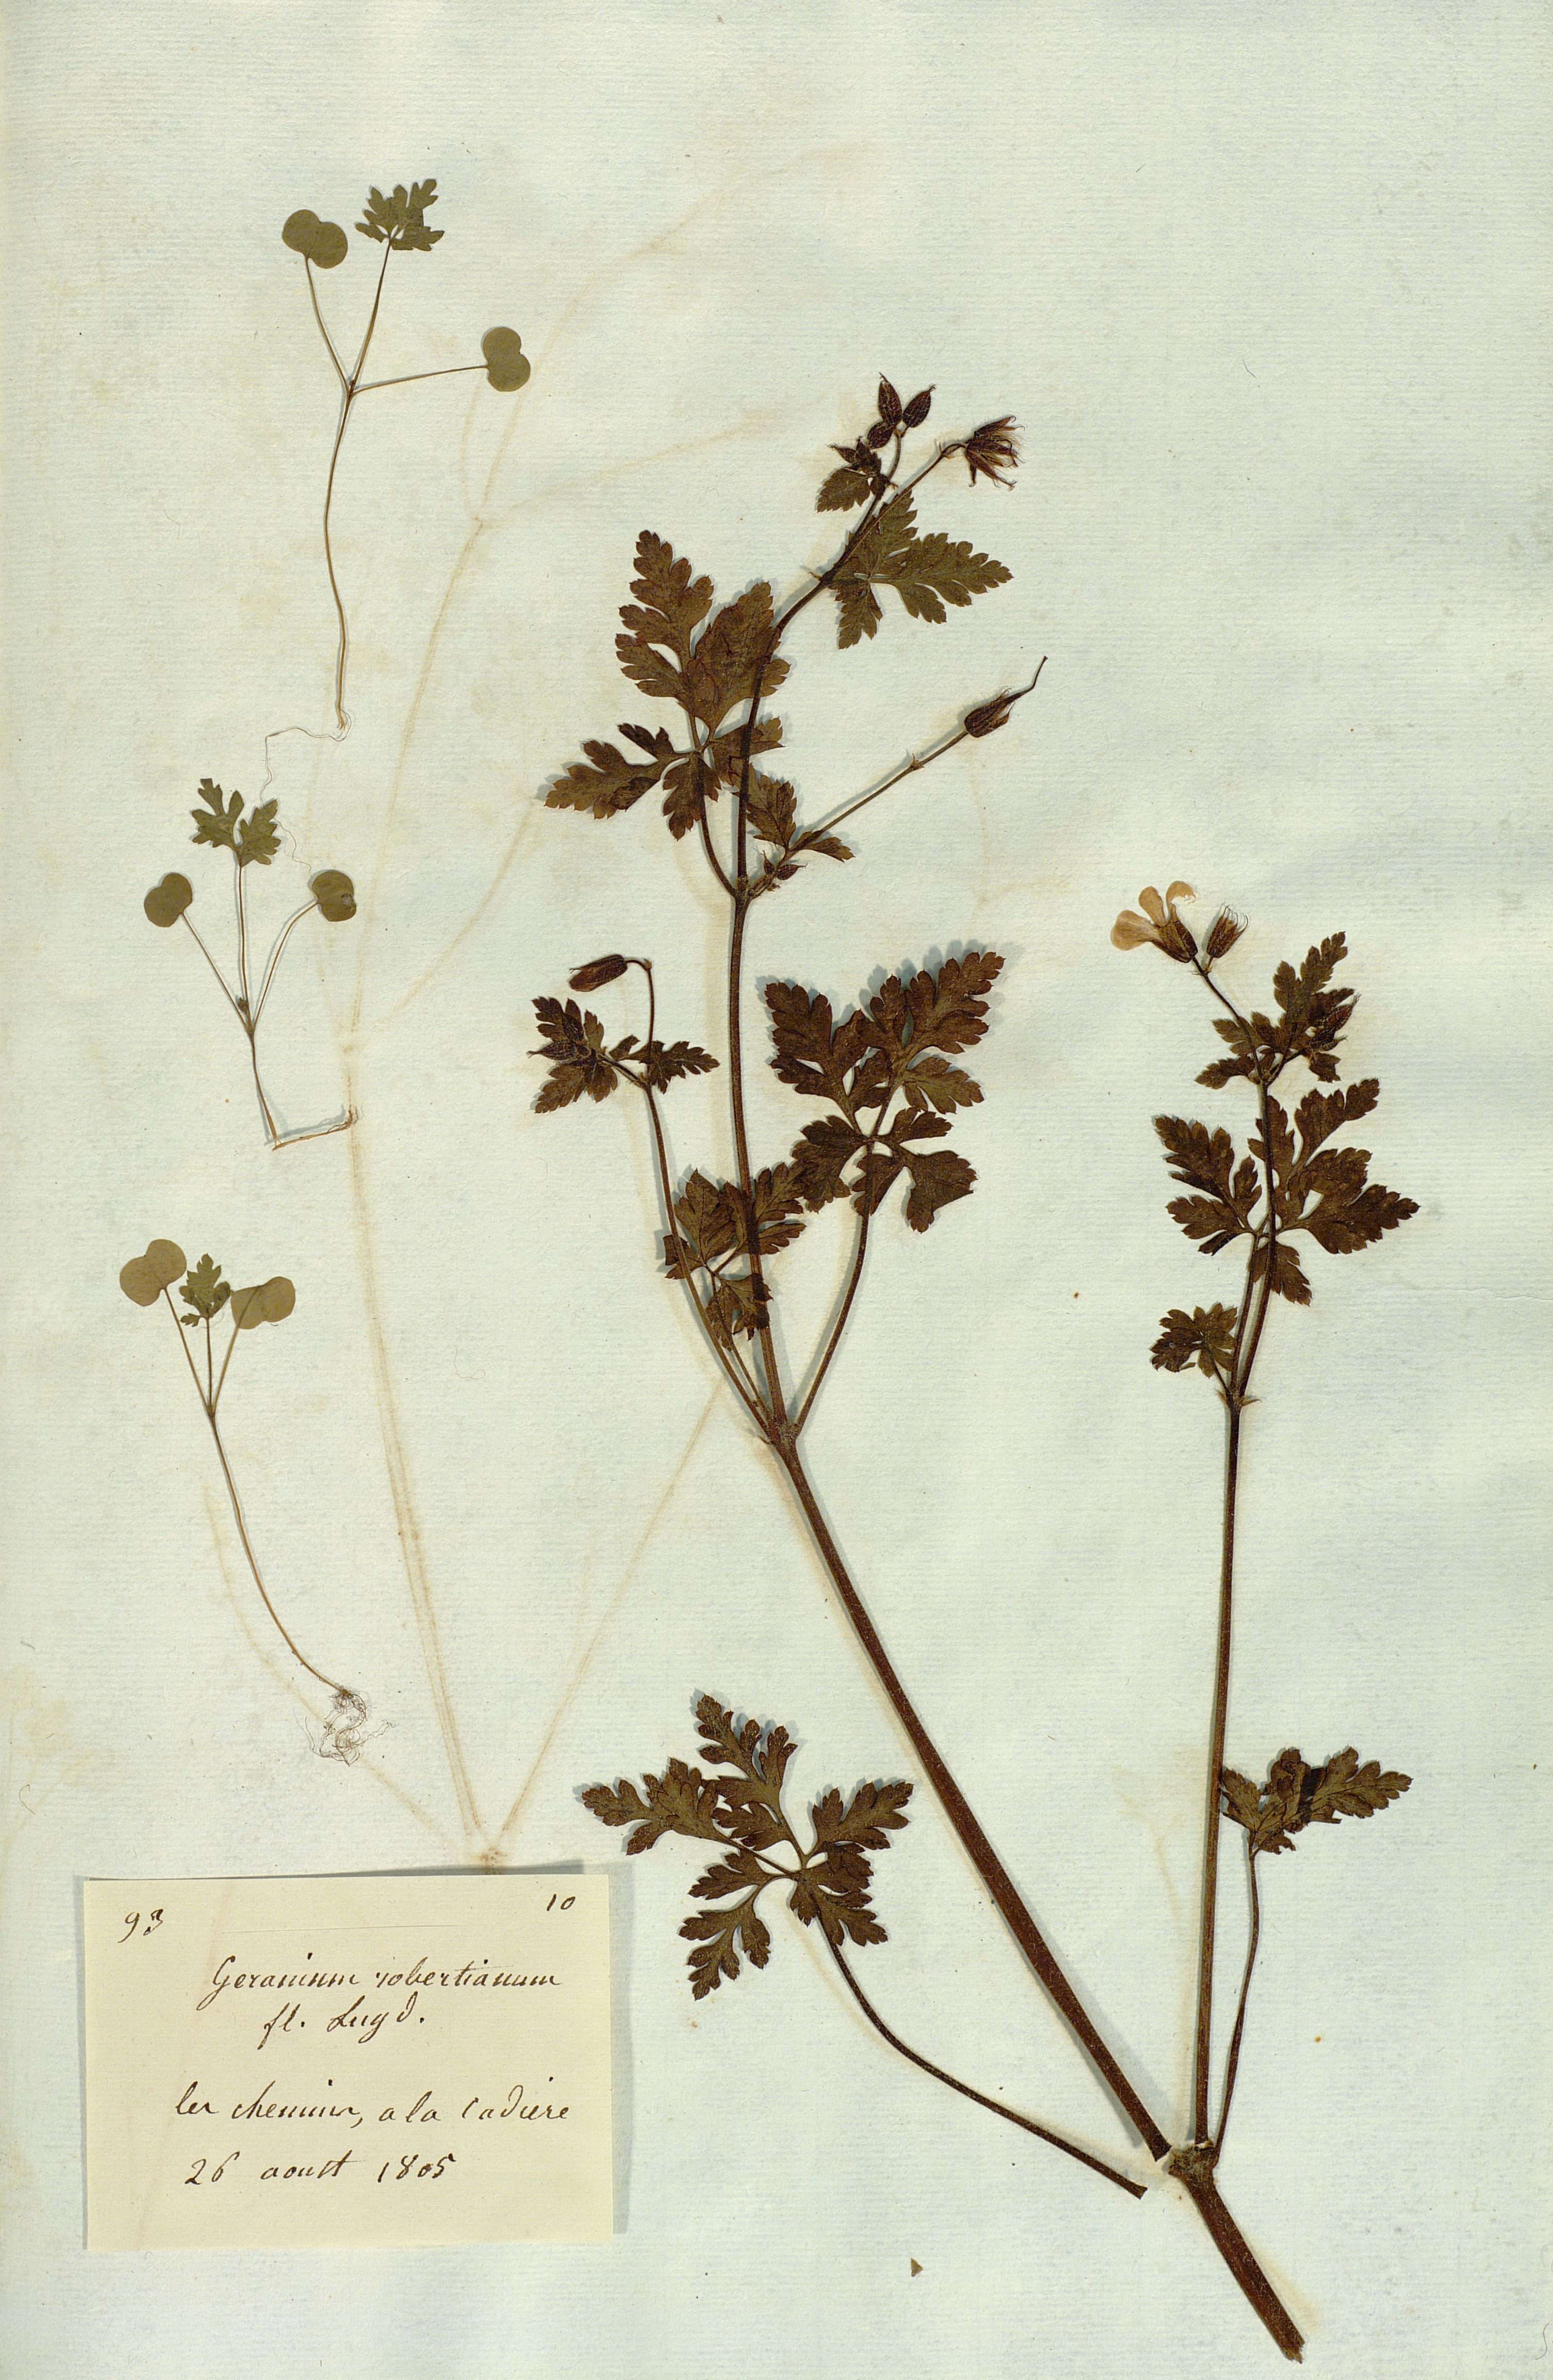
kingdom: Plantae
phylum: Tracheophyta
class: Magnoliopsida
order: Geraniales
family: Geraniaceae
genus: Geranium
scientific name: Geranium robertianum
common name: Herb-robert
